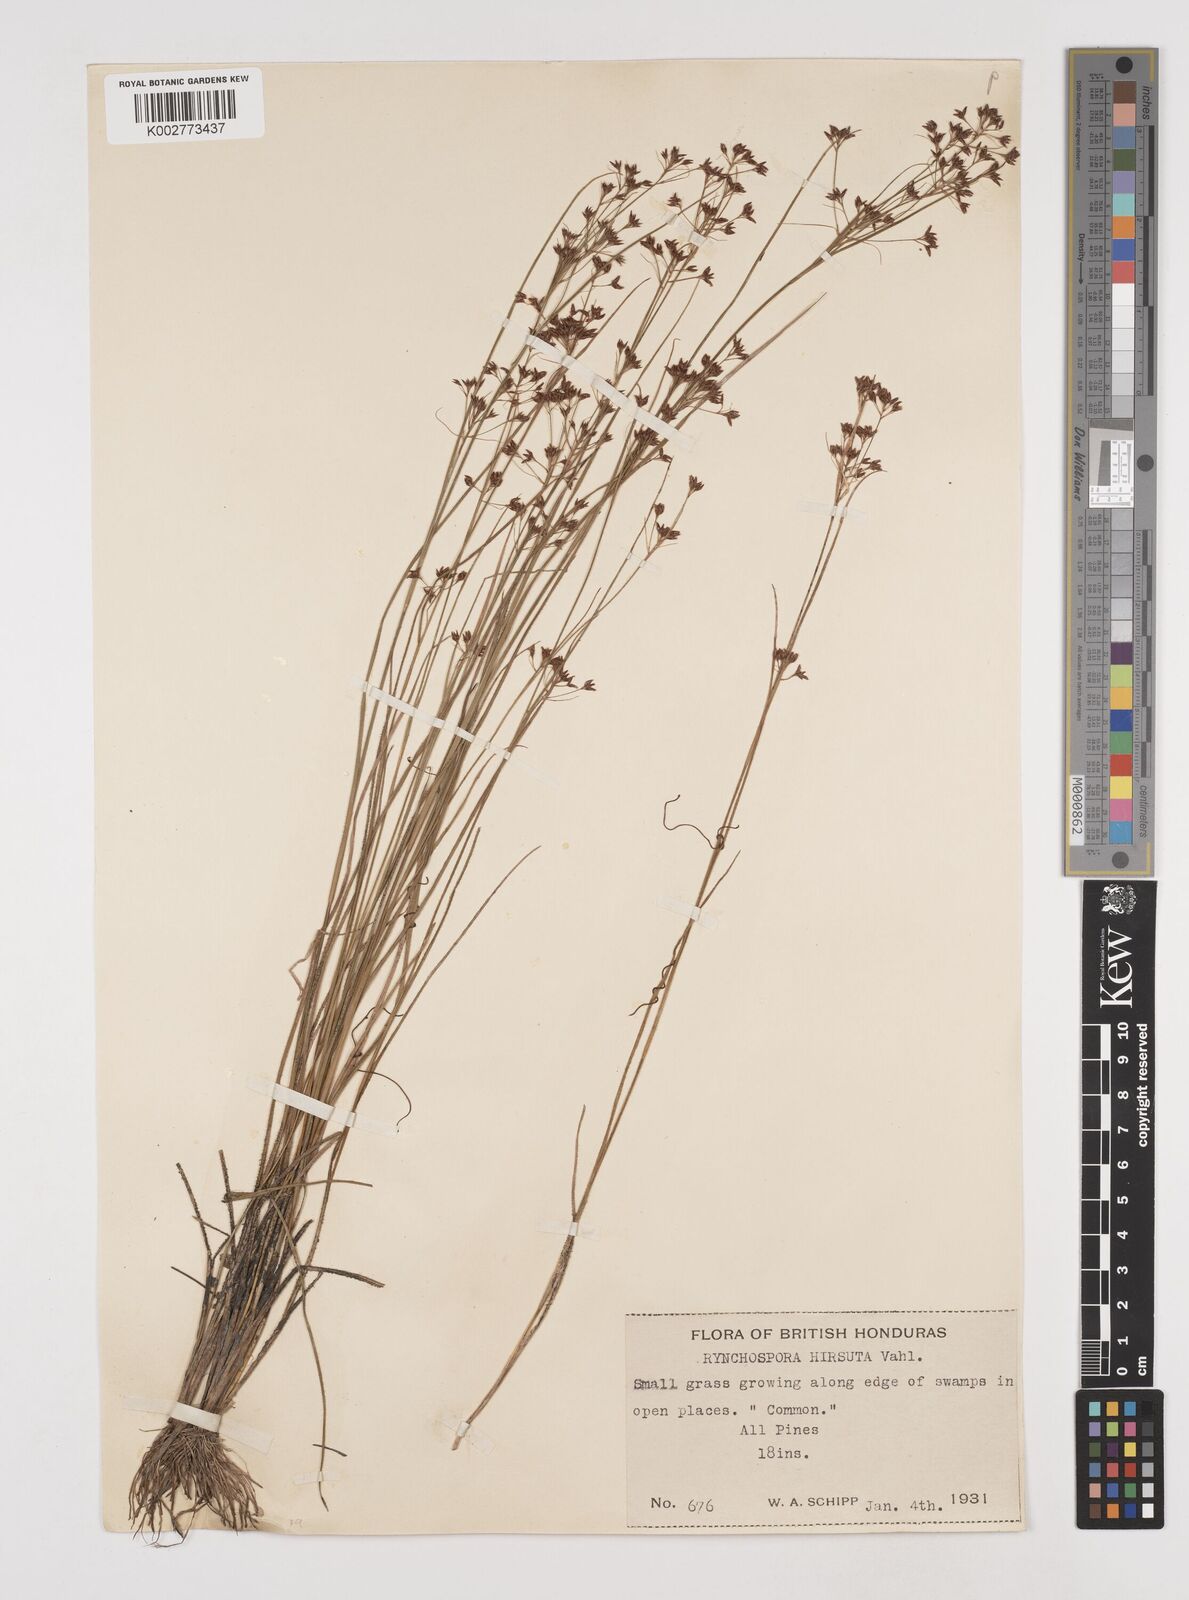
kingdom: Plantae
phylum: Tracheophyta
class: Liliopsida
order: Poales
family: Cyperaceae
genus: Rhynchospora
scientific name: Rhynchospora hirsuta
